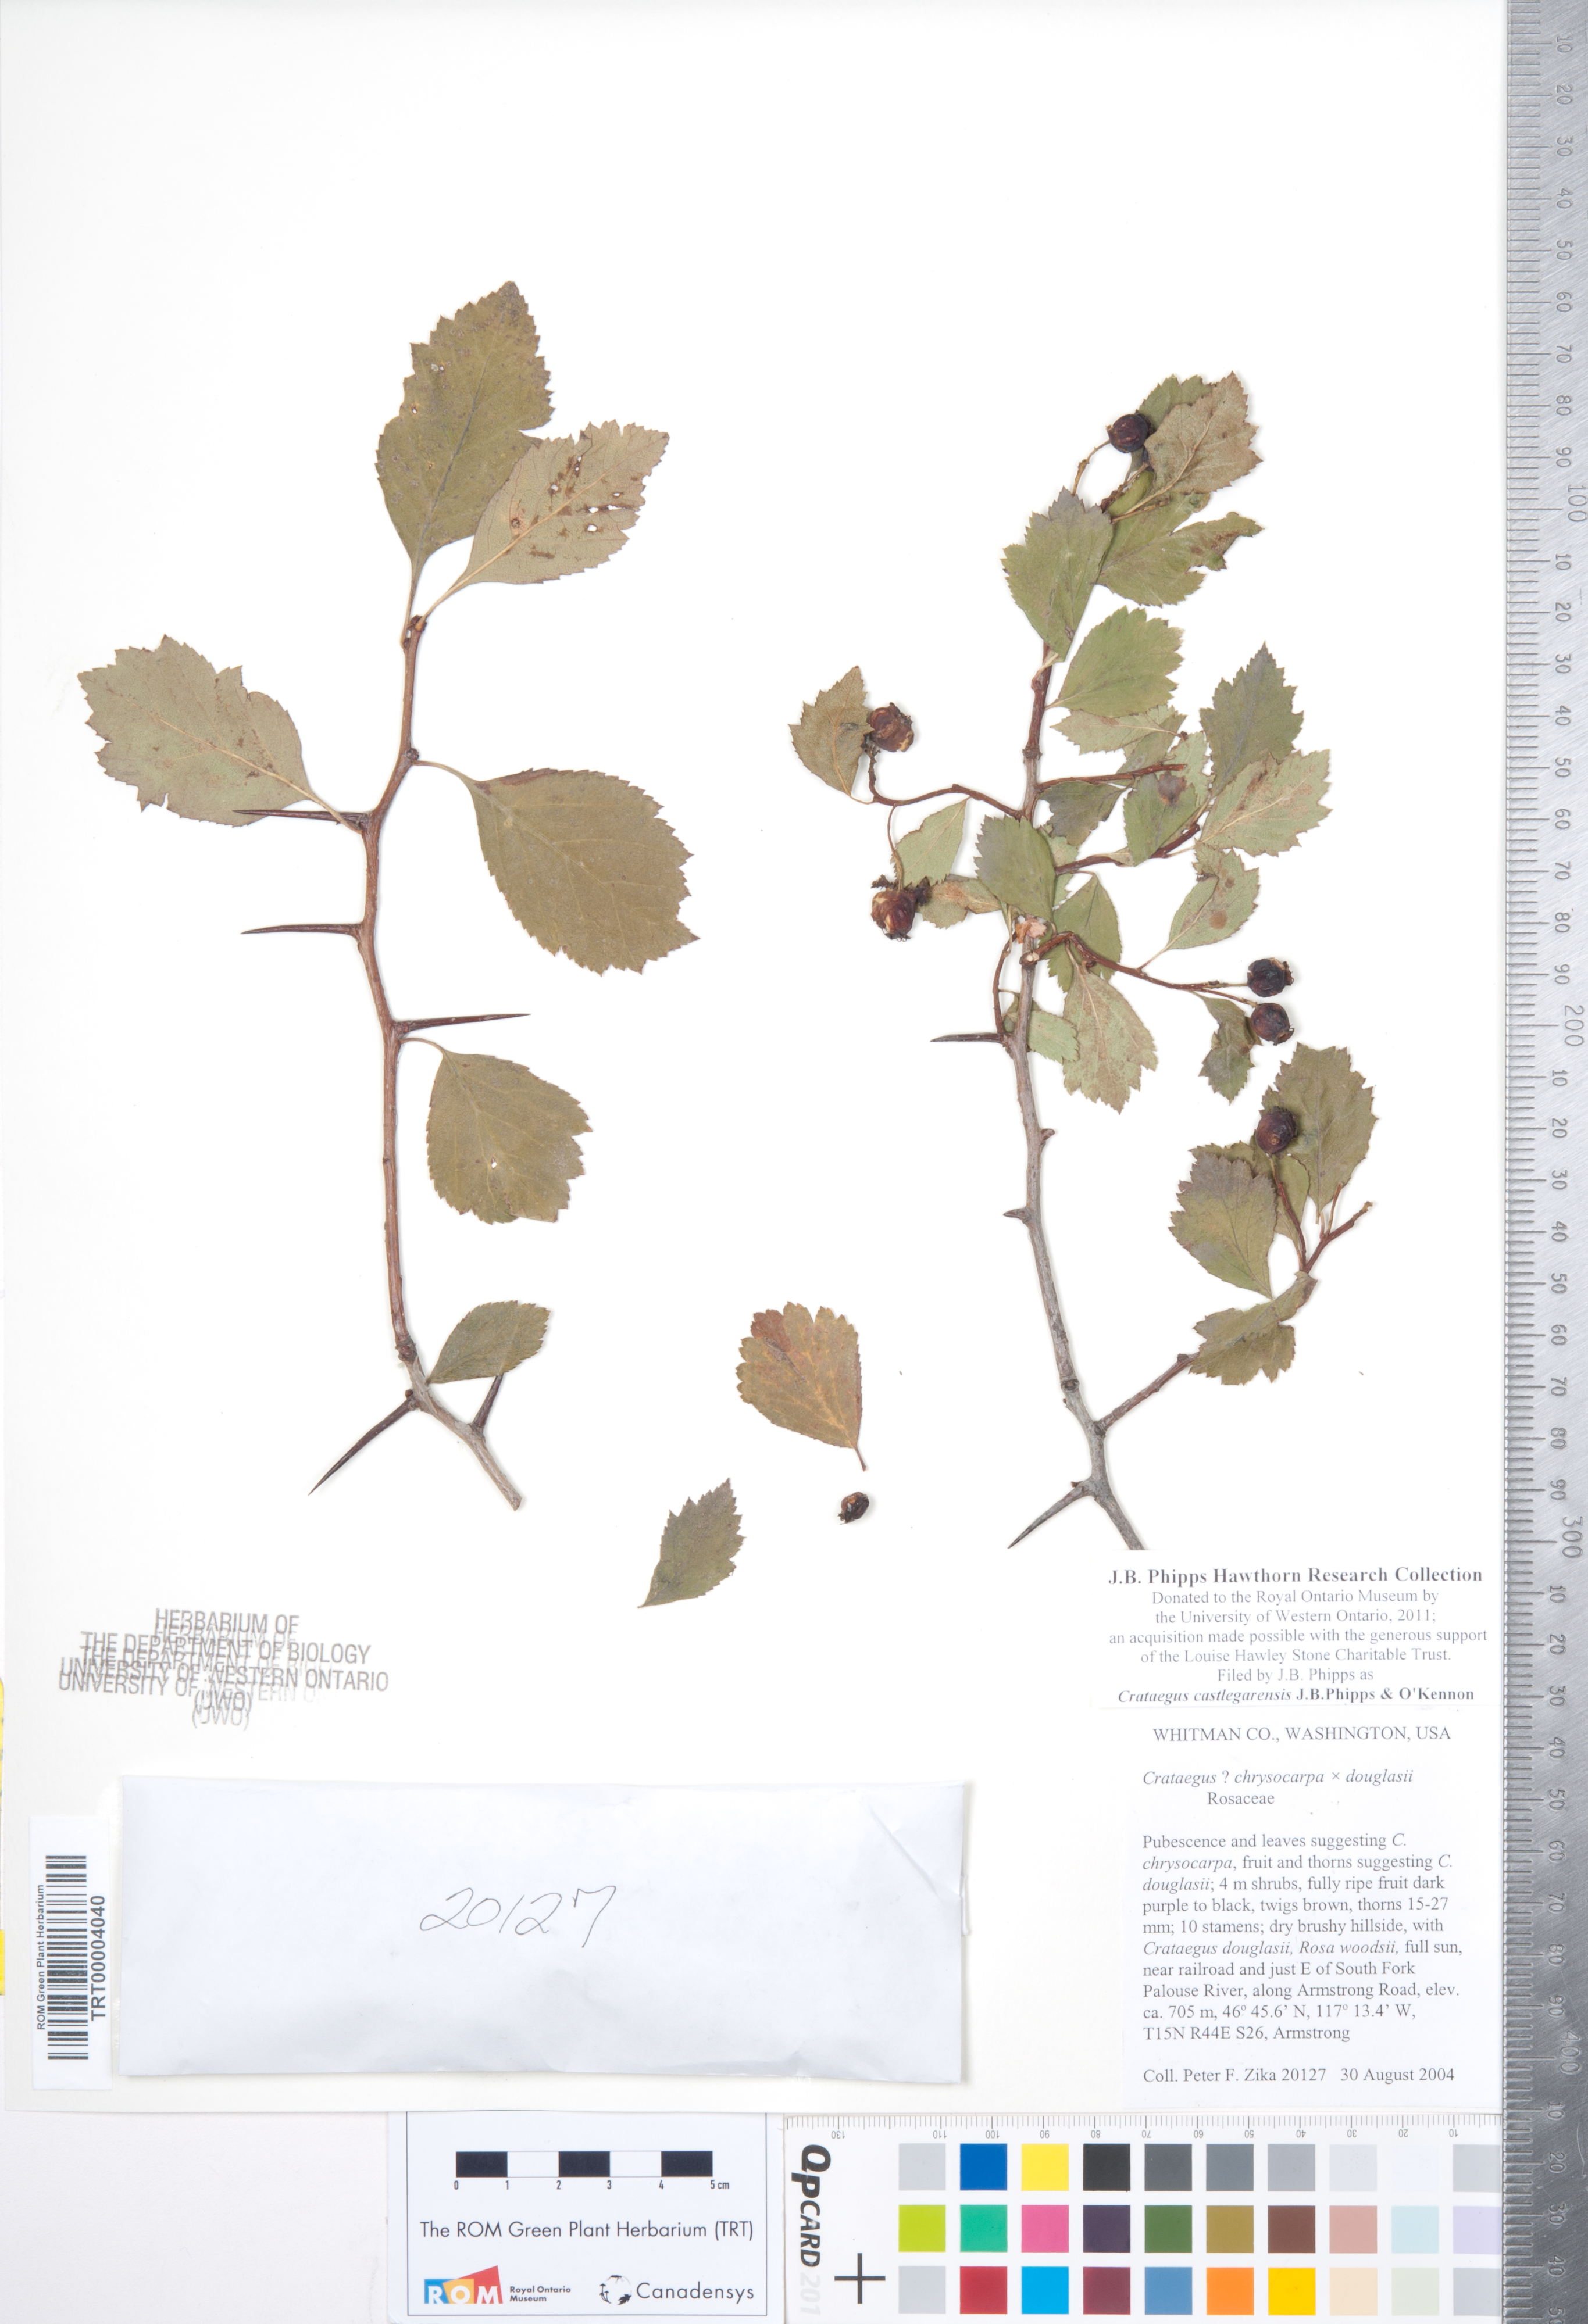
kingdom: Plantae
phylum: Tracheophyta
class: Magnoliopsida
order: Rosales
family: Rosaceae
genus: Crataegus
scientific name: Crataegus castlegarensis
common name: Castlegar hawthorn
